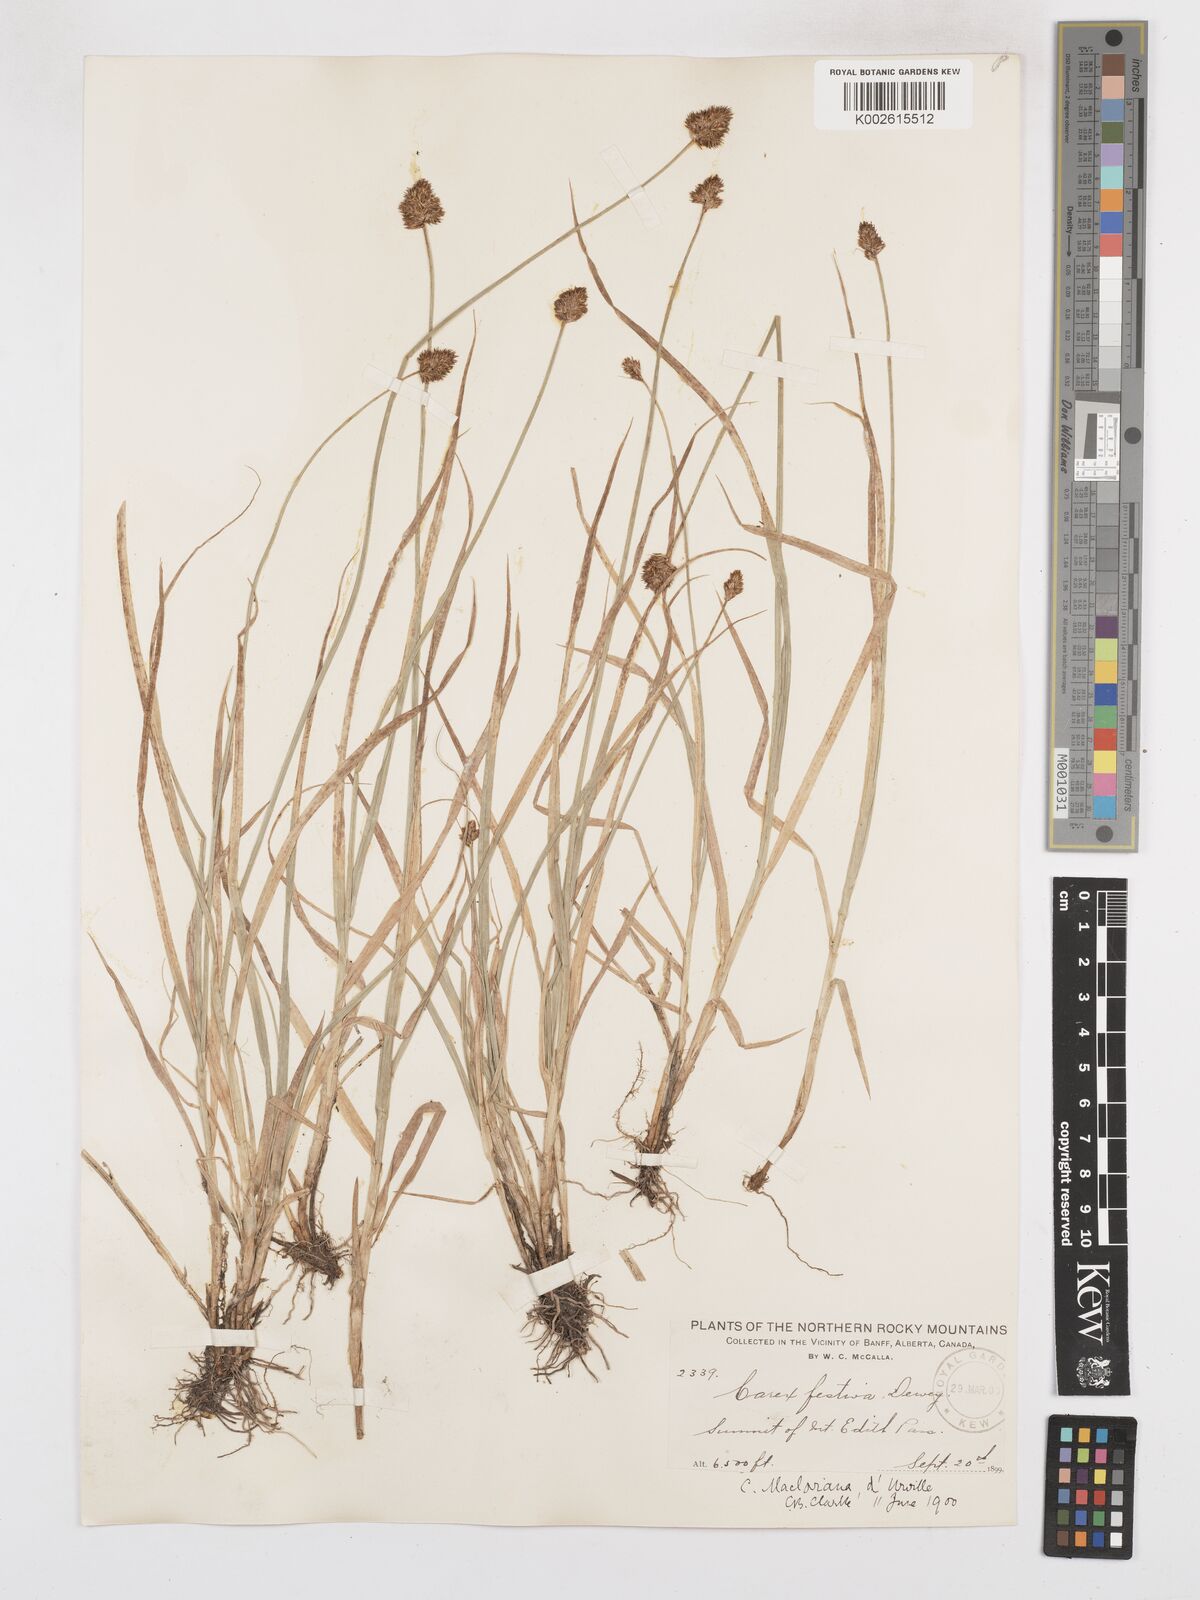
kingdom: Plantae
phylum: Tracheophyta
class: Liliopsida
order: Poales
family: Cyperaceae
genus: Carex
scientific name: Carex macloviana
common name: Falkland island sedge
